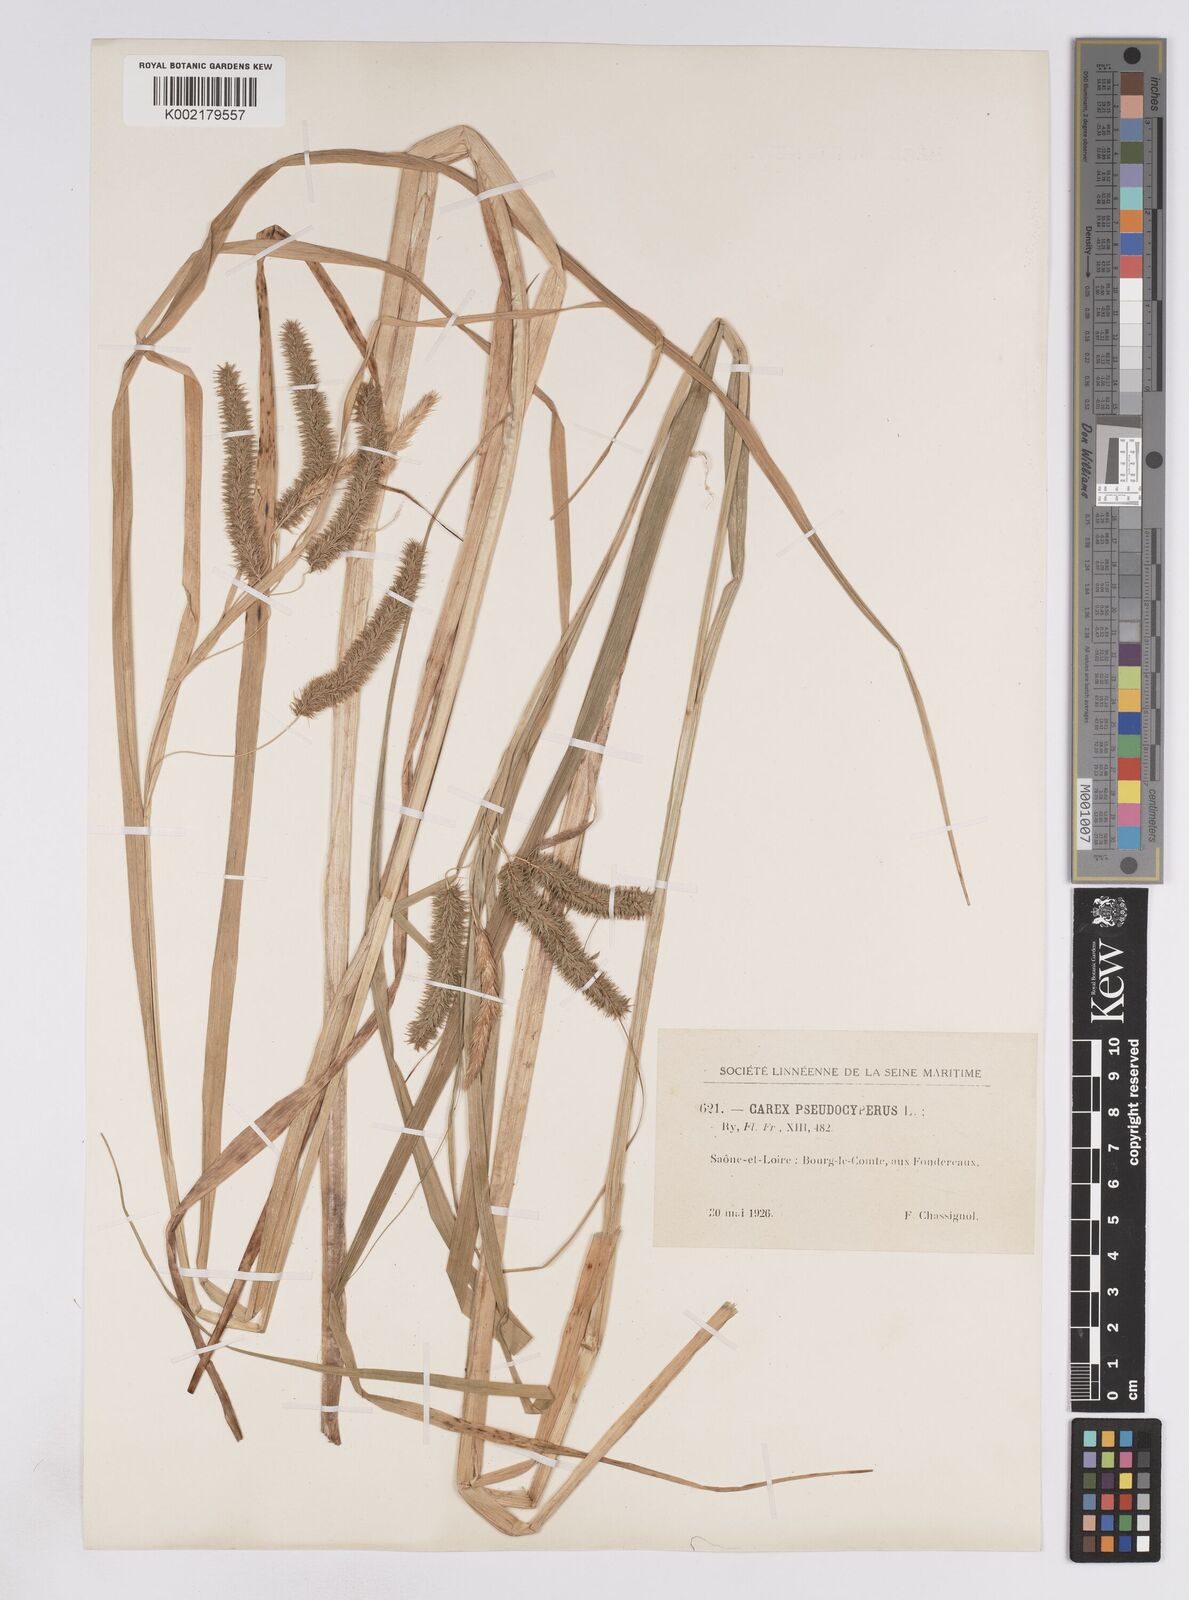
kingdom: Plantae
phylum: Tracheophyta
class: Liliopsida
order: Poales
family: Cyperaceae
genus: Carex
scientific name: Carex pseudocyperus
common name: Cyperus sedge
